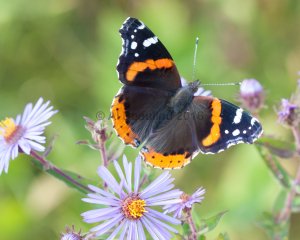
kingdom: Animalia
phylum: Arthropoda
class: Insecta
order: Lepidoptera
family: Nymphalidae
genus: Vanessa
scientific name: Vanessa atalanta
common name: Red Admiral
